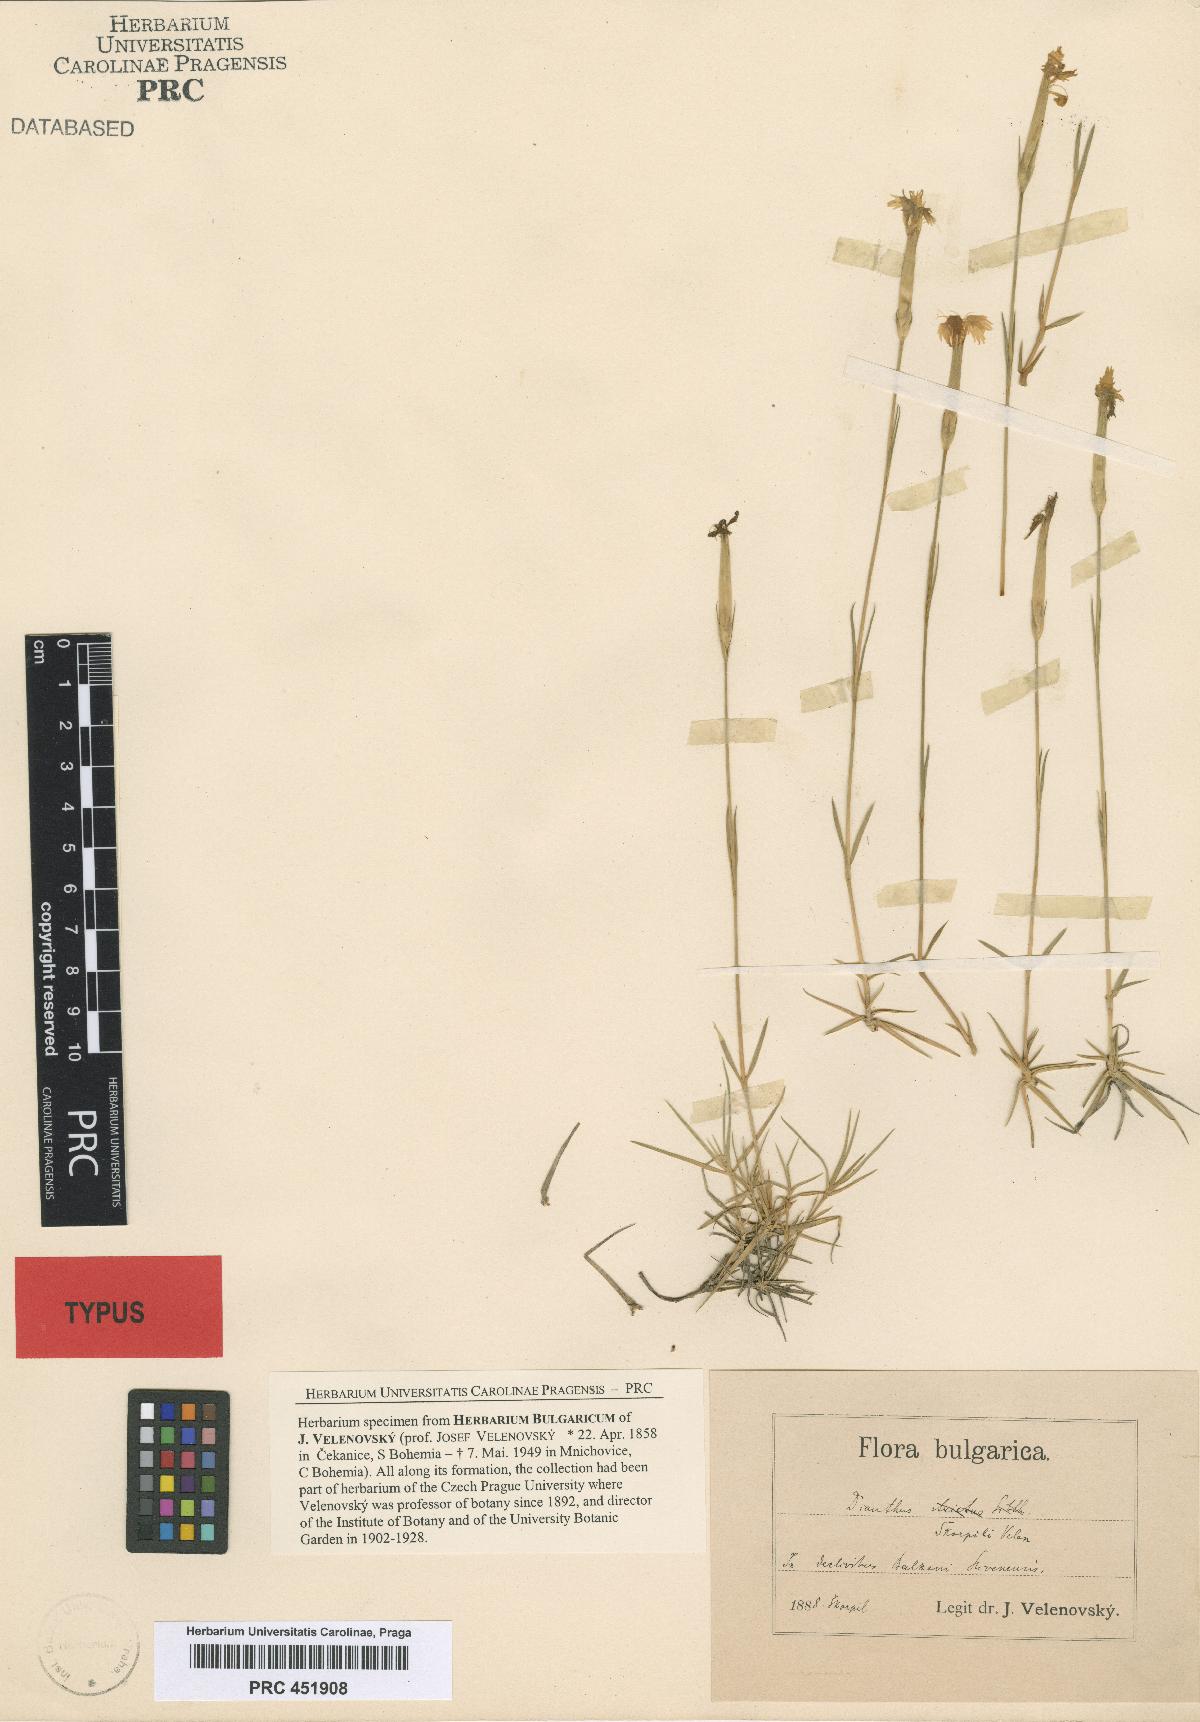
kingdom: Plantae
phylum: Tracheophyta
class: Magnoliopsida
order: Caryophyllales
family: Caryophyllaceae
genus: Dianthus
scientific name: Dianthus petraeus
